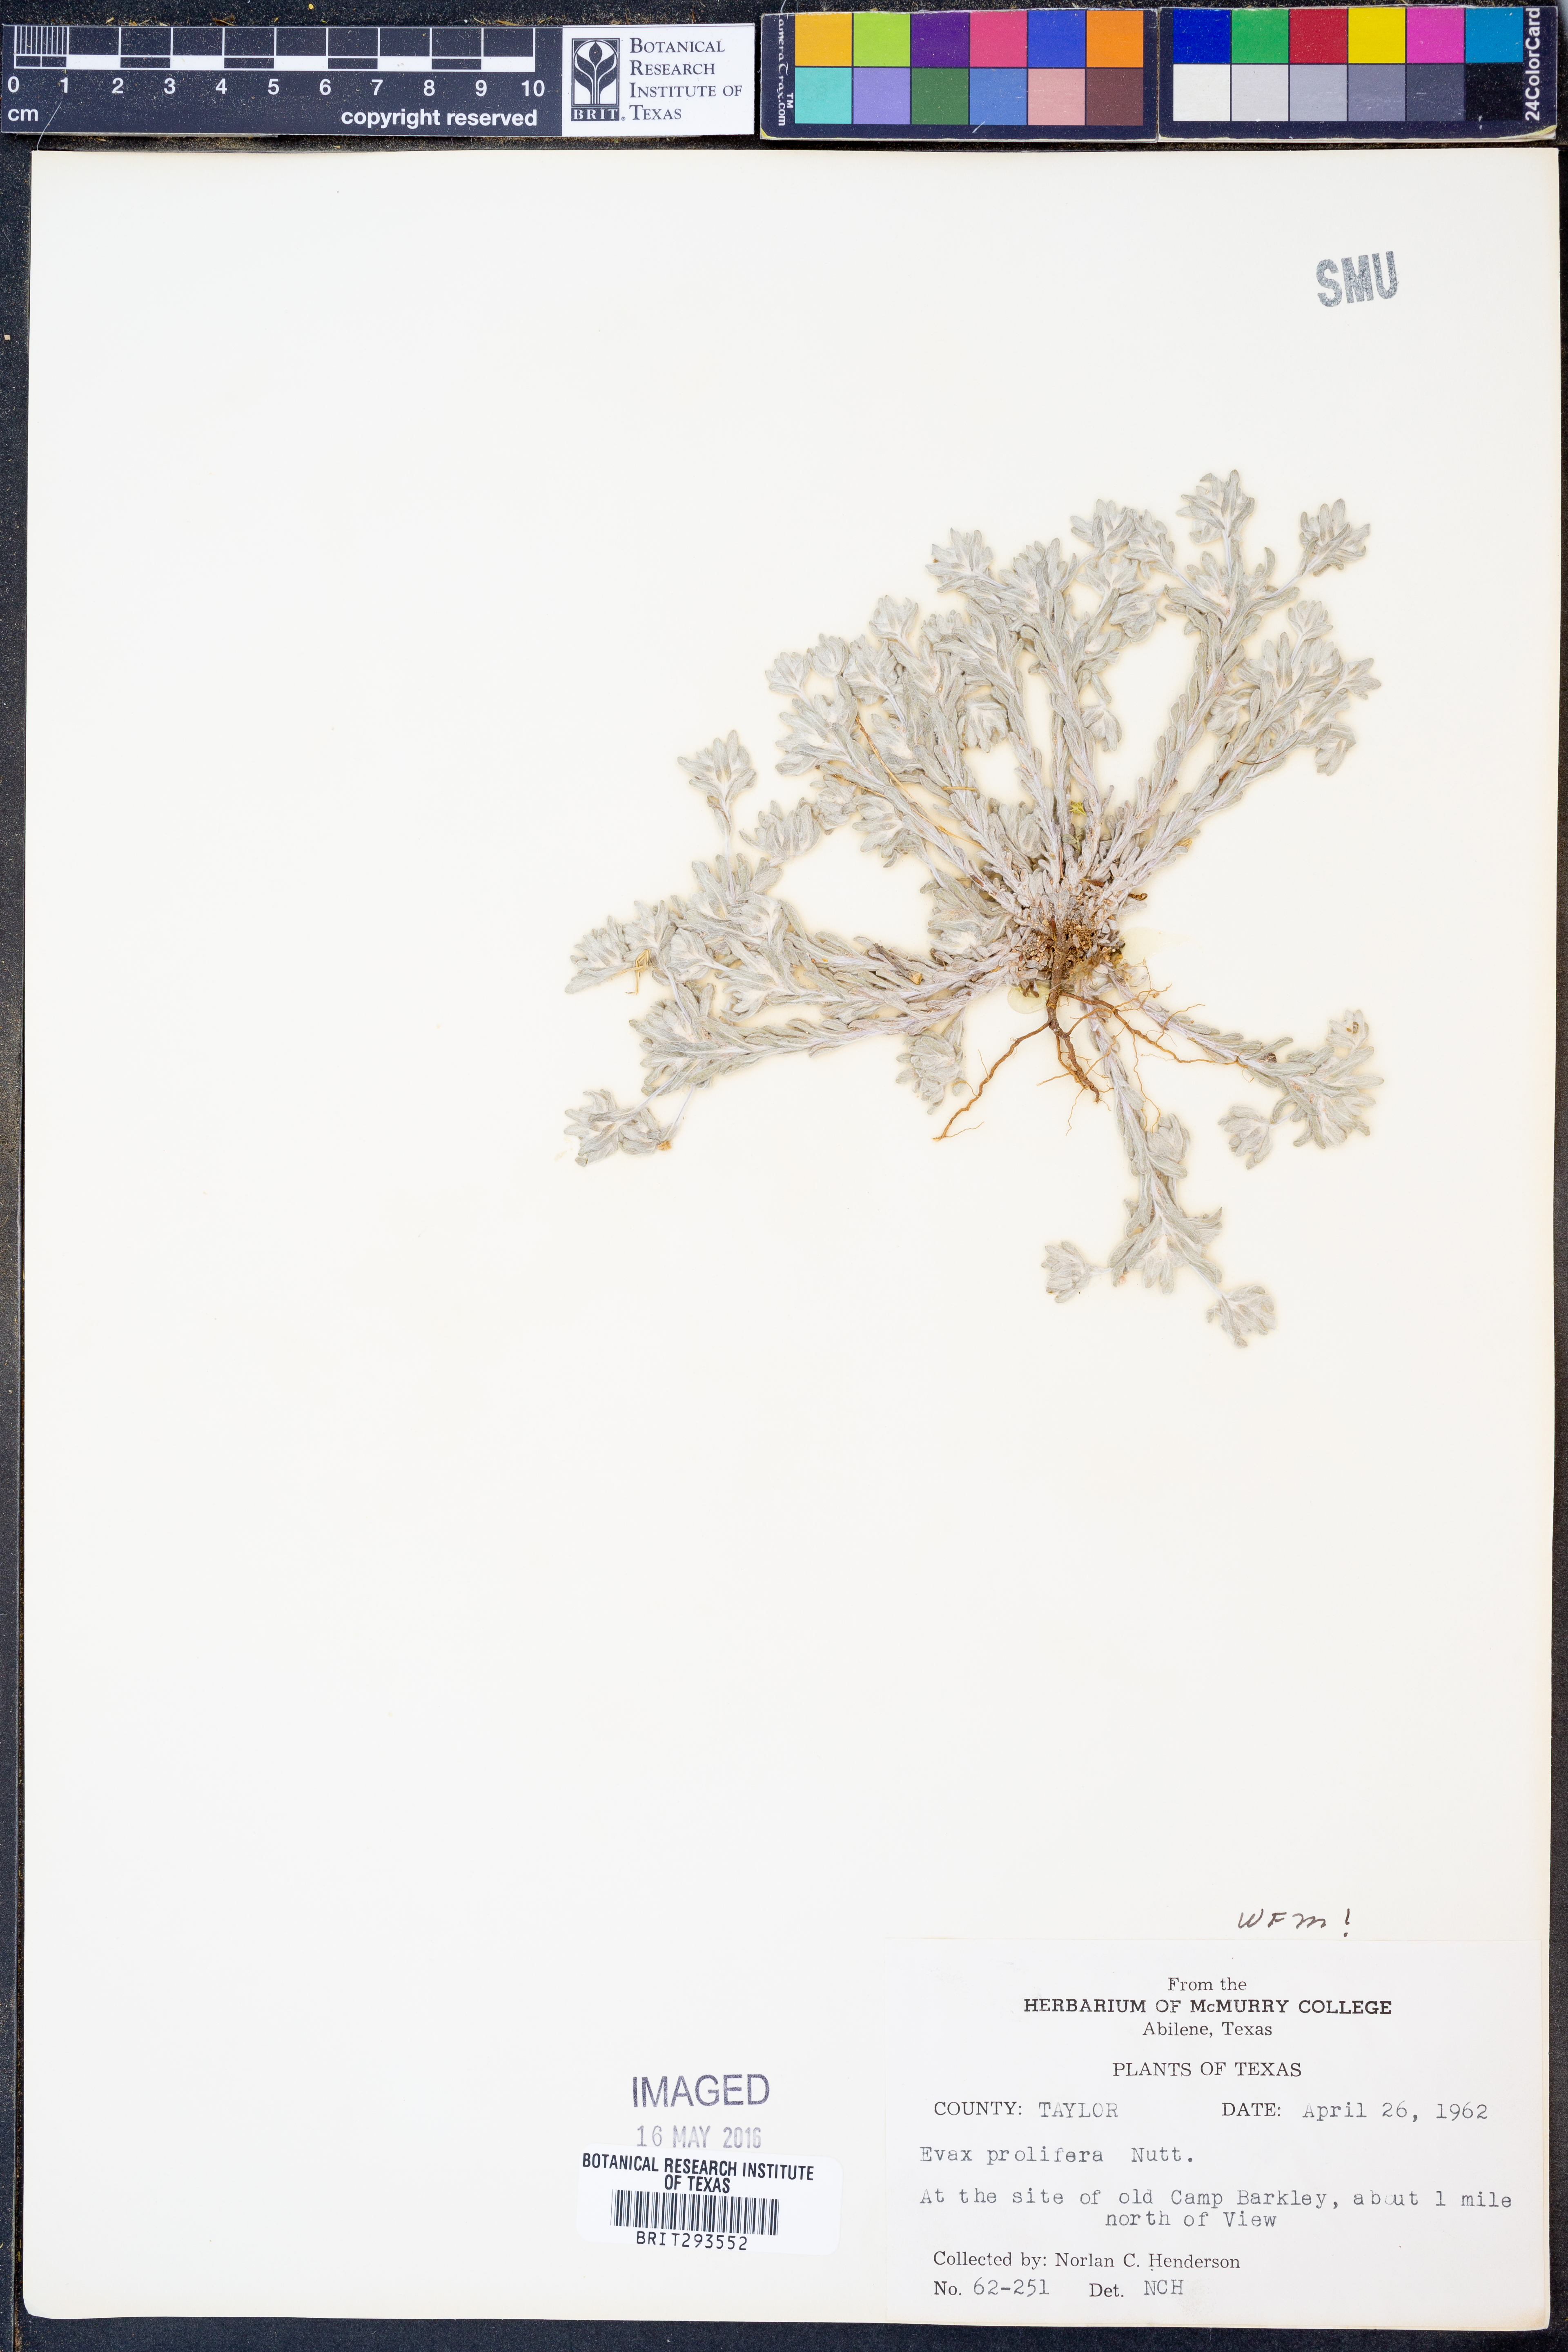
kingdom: Plantae
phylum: Tracheophyta
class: Magnoliopsida
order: Asterales
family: Asteraceae
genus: Diaperia
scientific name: Diaperia prolifera
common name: Big-head rabbit-tobacco
